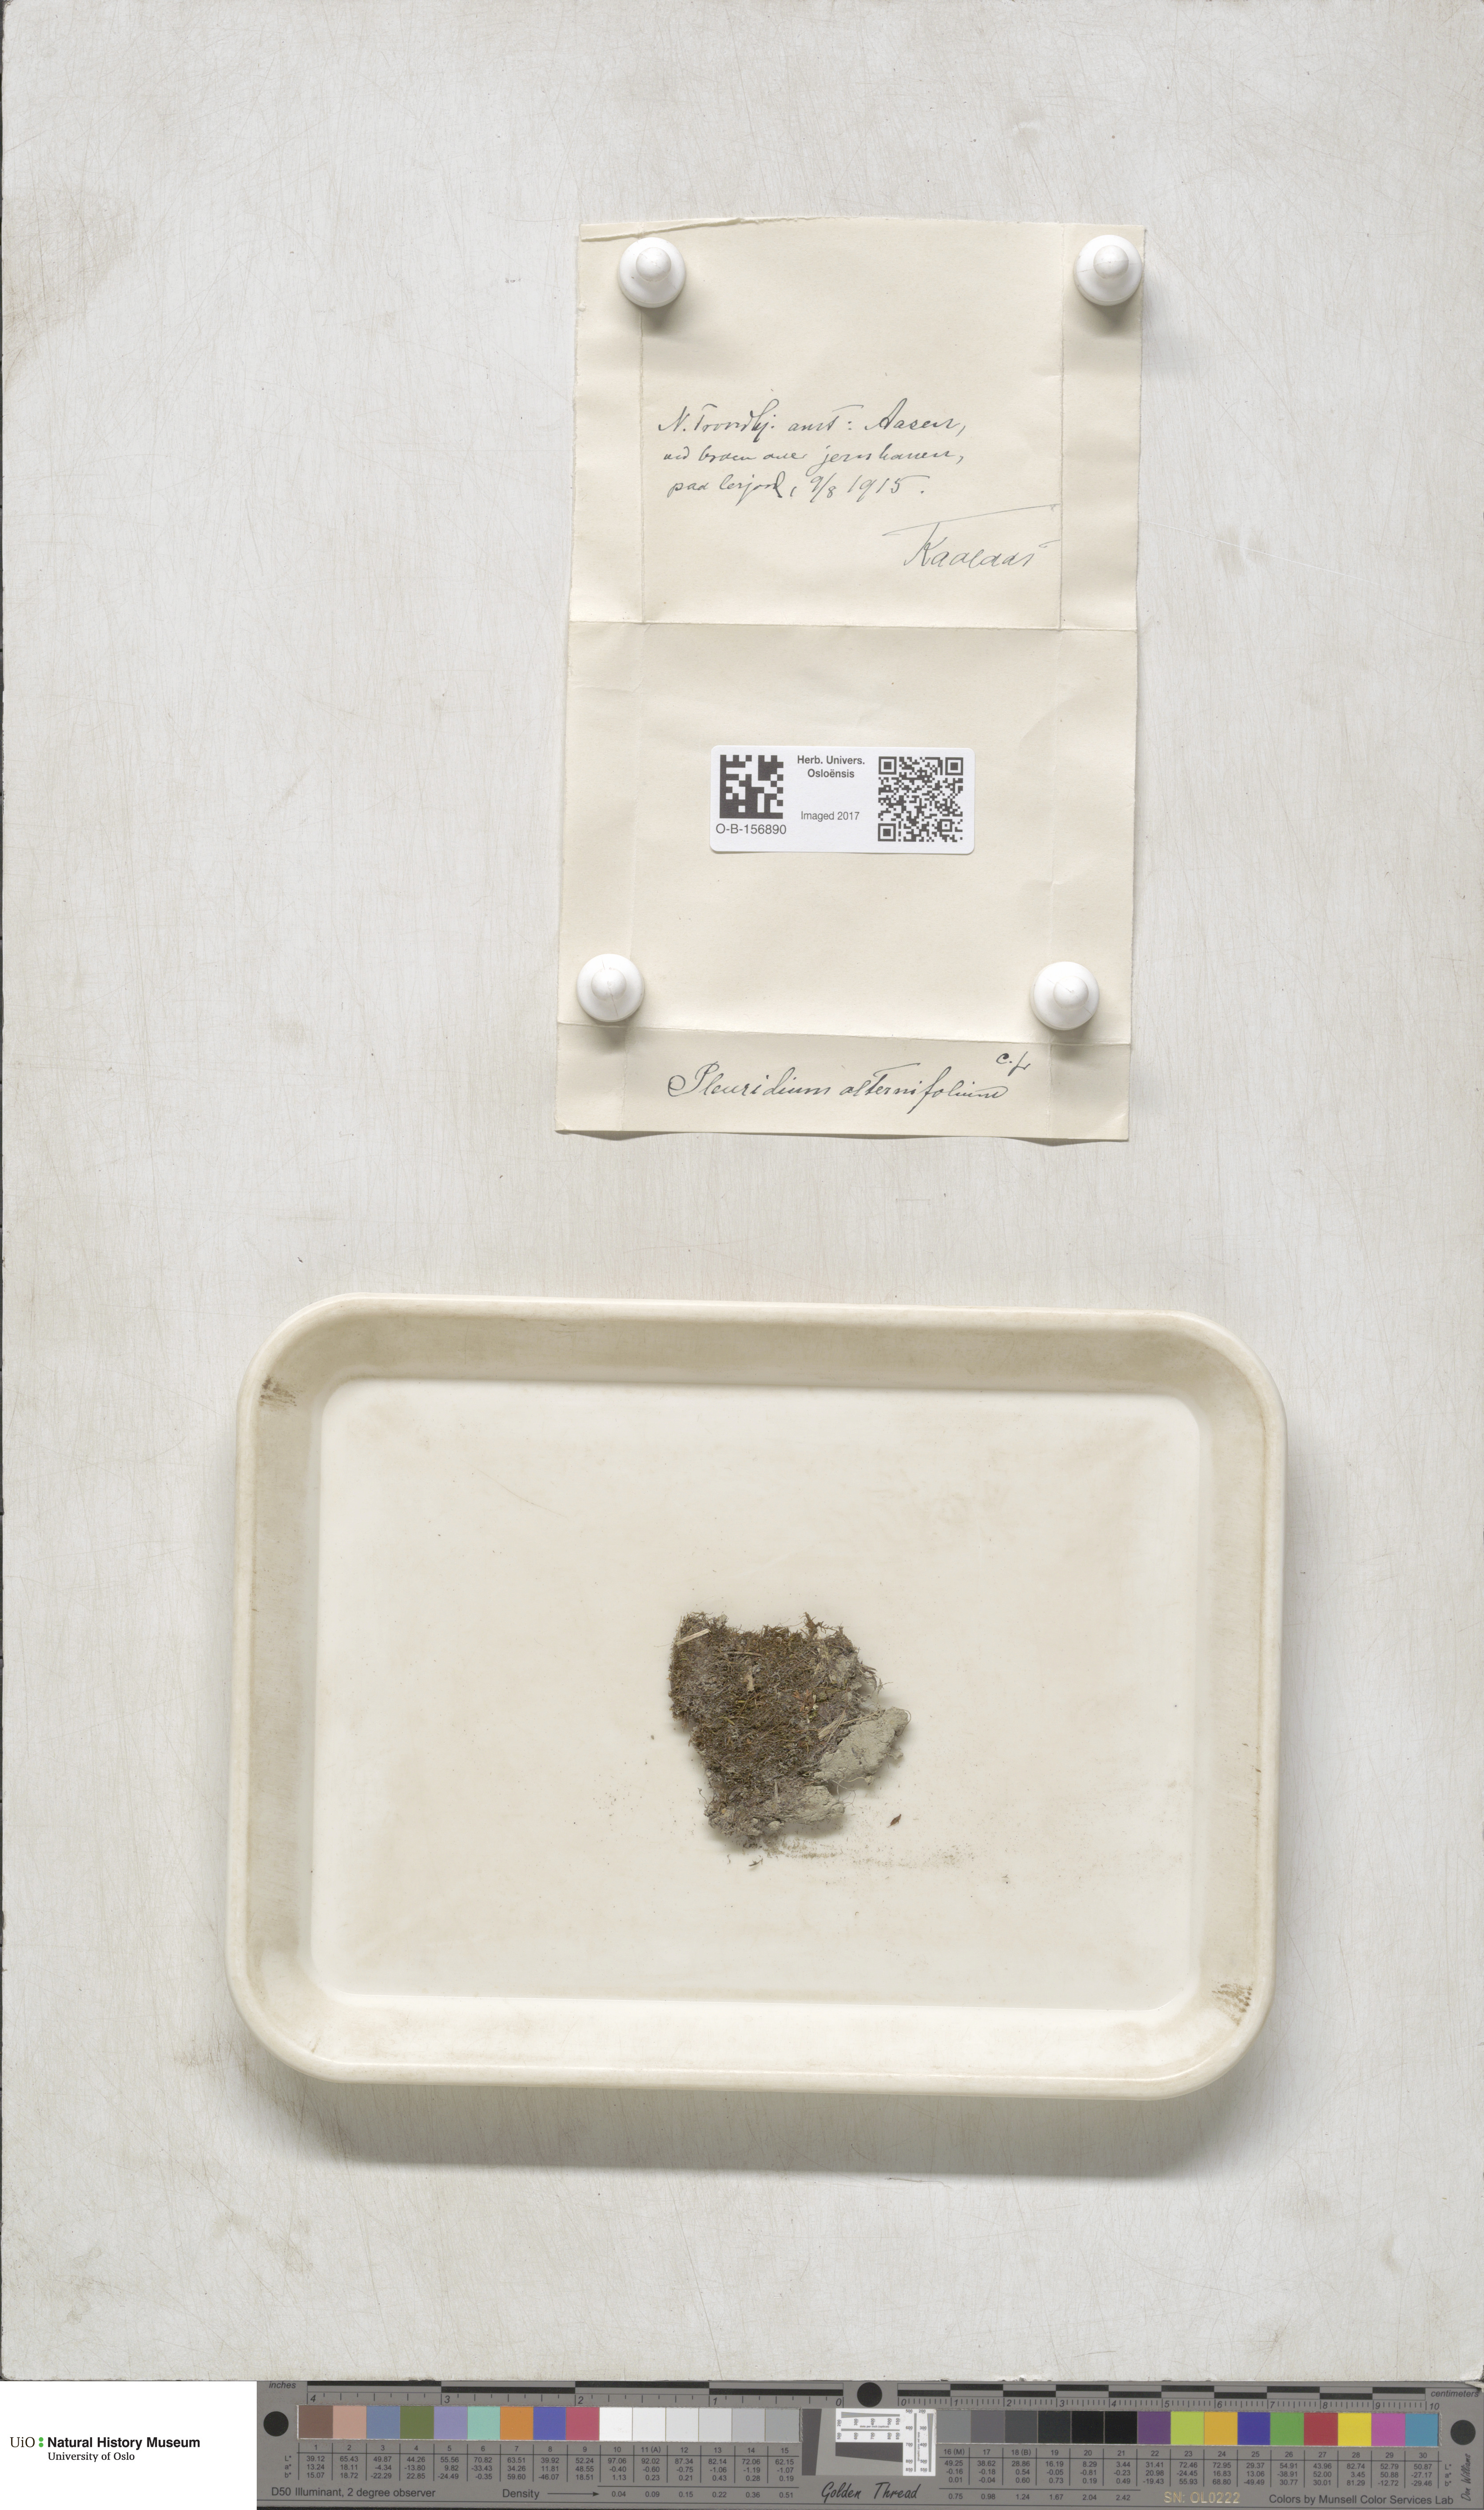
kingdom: Plantae
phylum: Bryophyta
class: Bryopsida
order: Dicranales
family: Ditrichaceae
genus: Pleuridium
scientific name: Pleuridium subulatum
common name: Awl-leaved earth-moss
